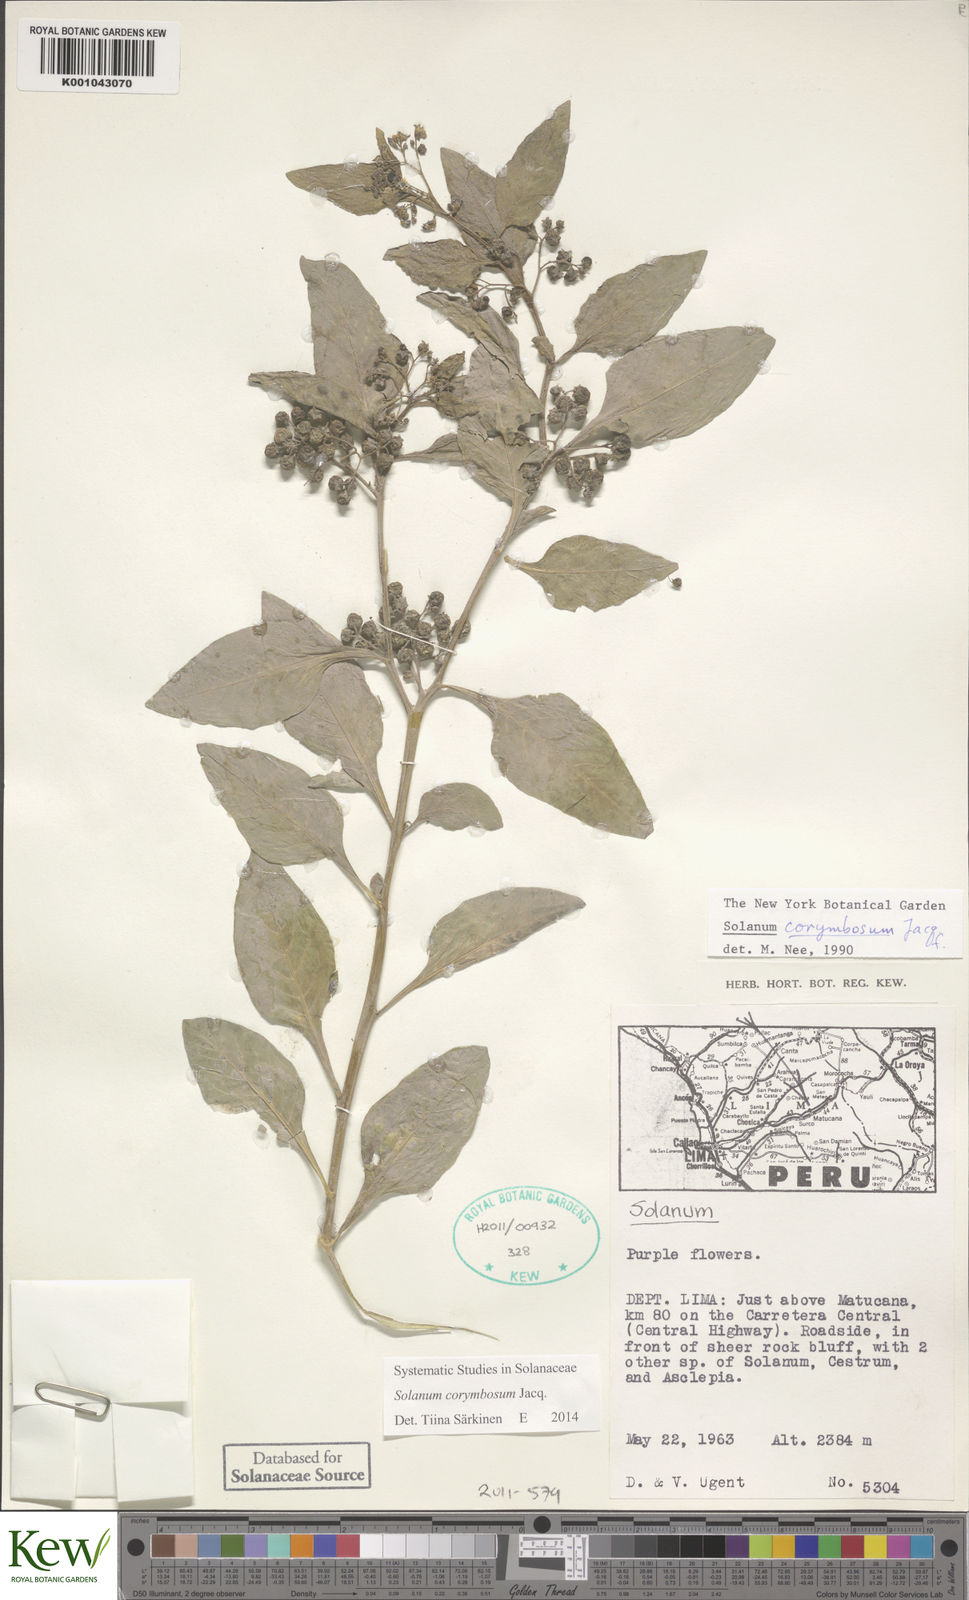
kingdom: Plantae
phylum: Tracheophyta
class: Magnoliopsida
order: Solanales
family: Solanaceae
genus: Solanum
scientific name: Solanum corymbosum
